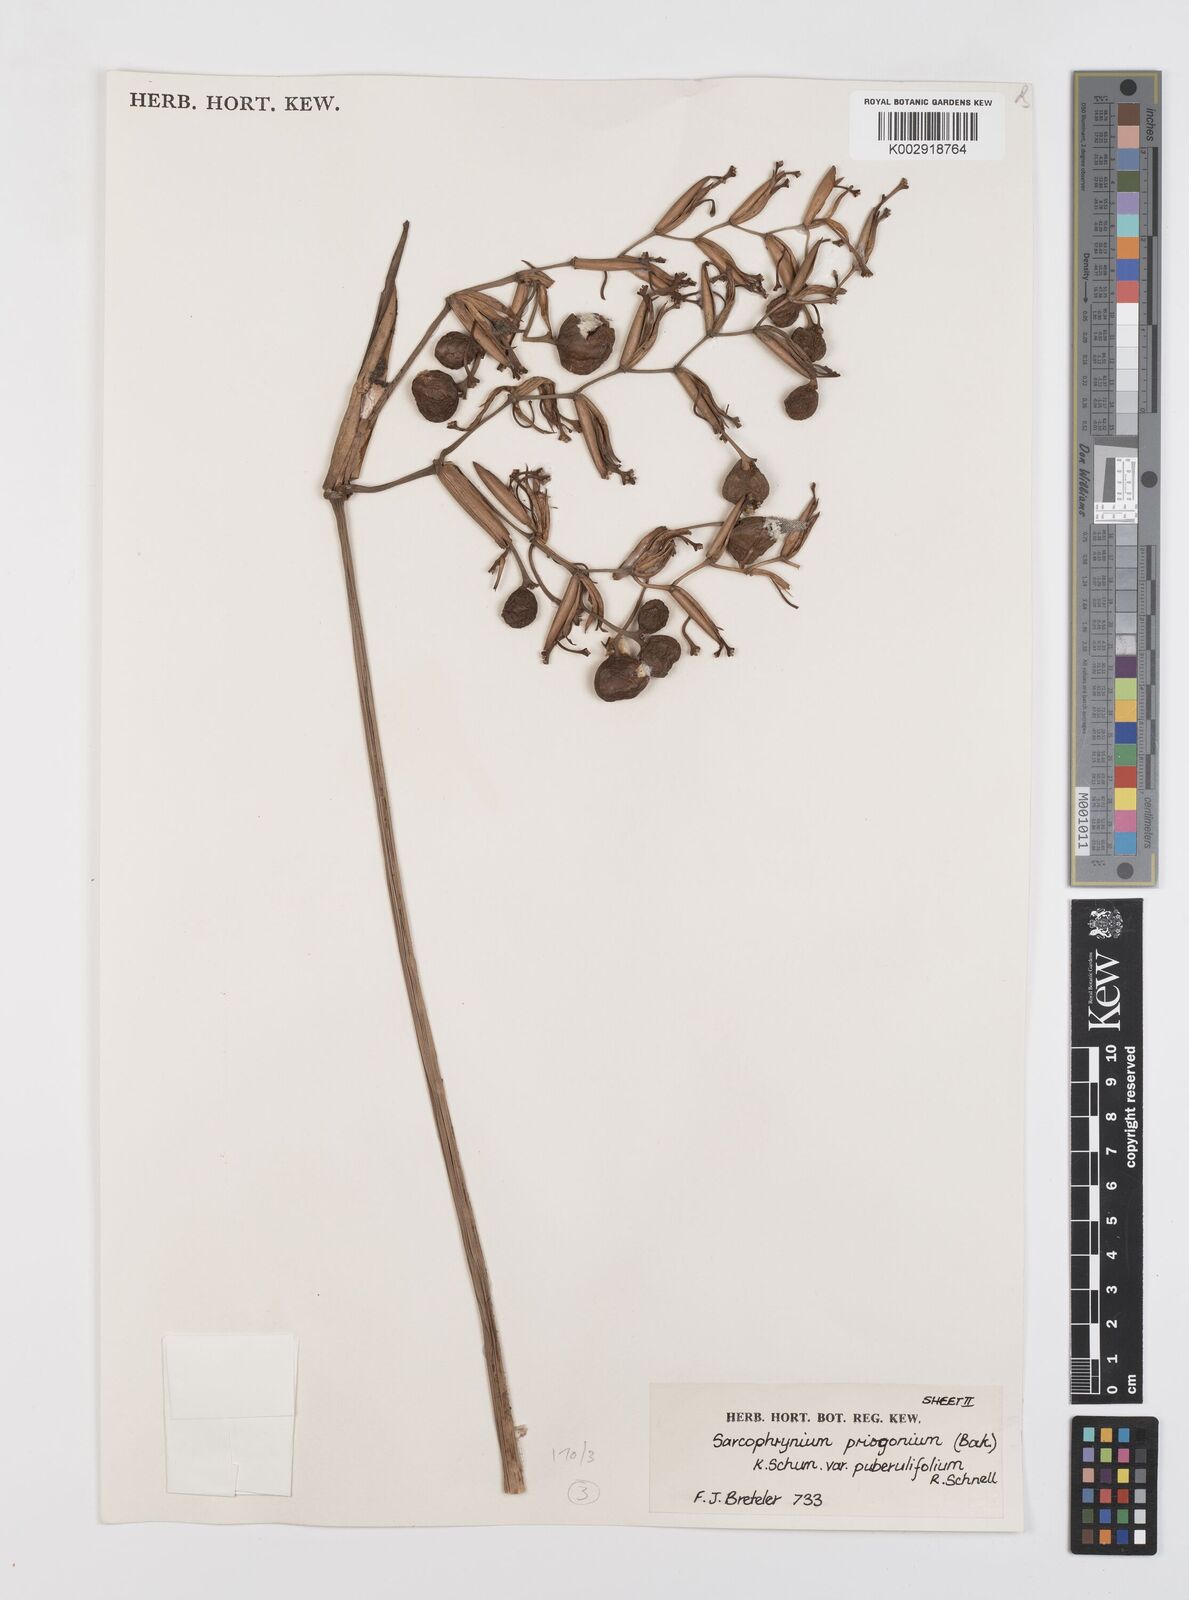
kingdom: Plantae
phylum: Tracheophyta
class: Liliopsida
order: Zingiberales
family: Marantaceae
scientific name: Marantaceae
